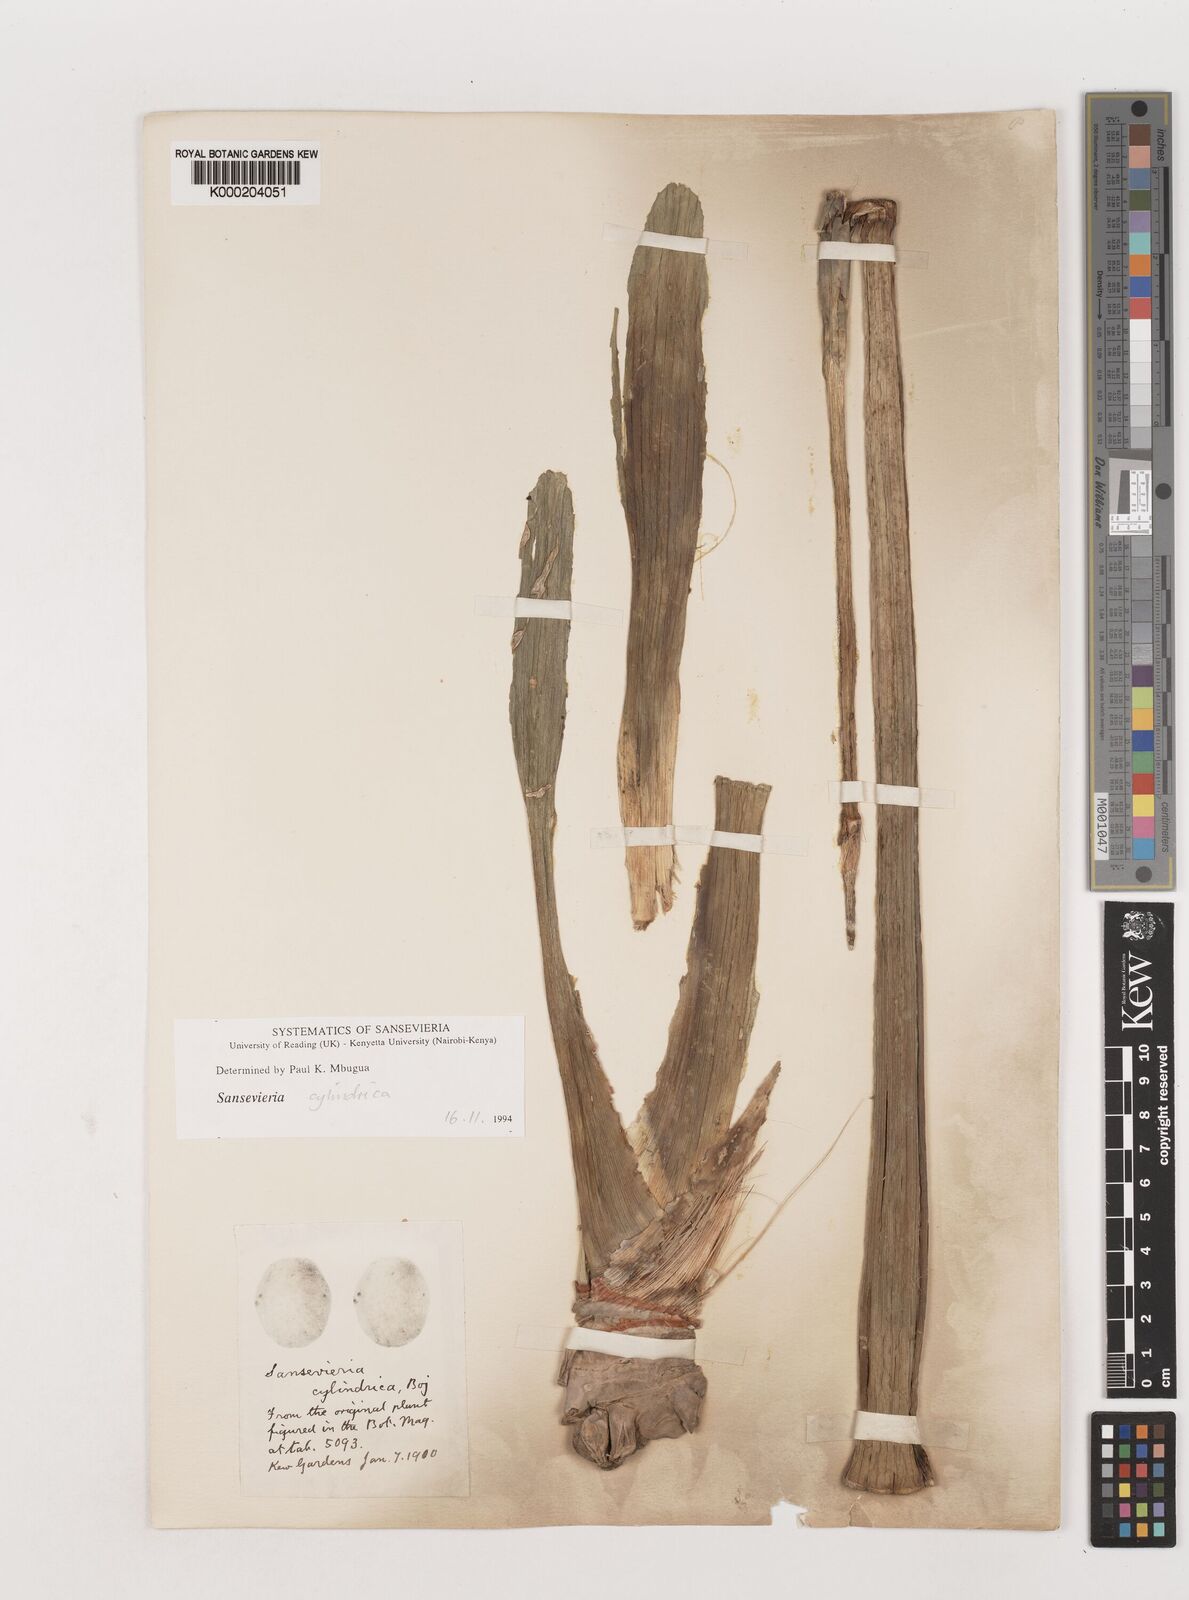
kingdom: Plantae
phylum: Tracheophyta
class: Liliopsida
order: Asparagales
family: Asparagaceae
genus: Dracaena
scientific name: Dracaena angolensis
